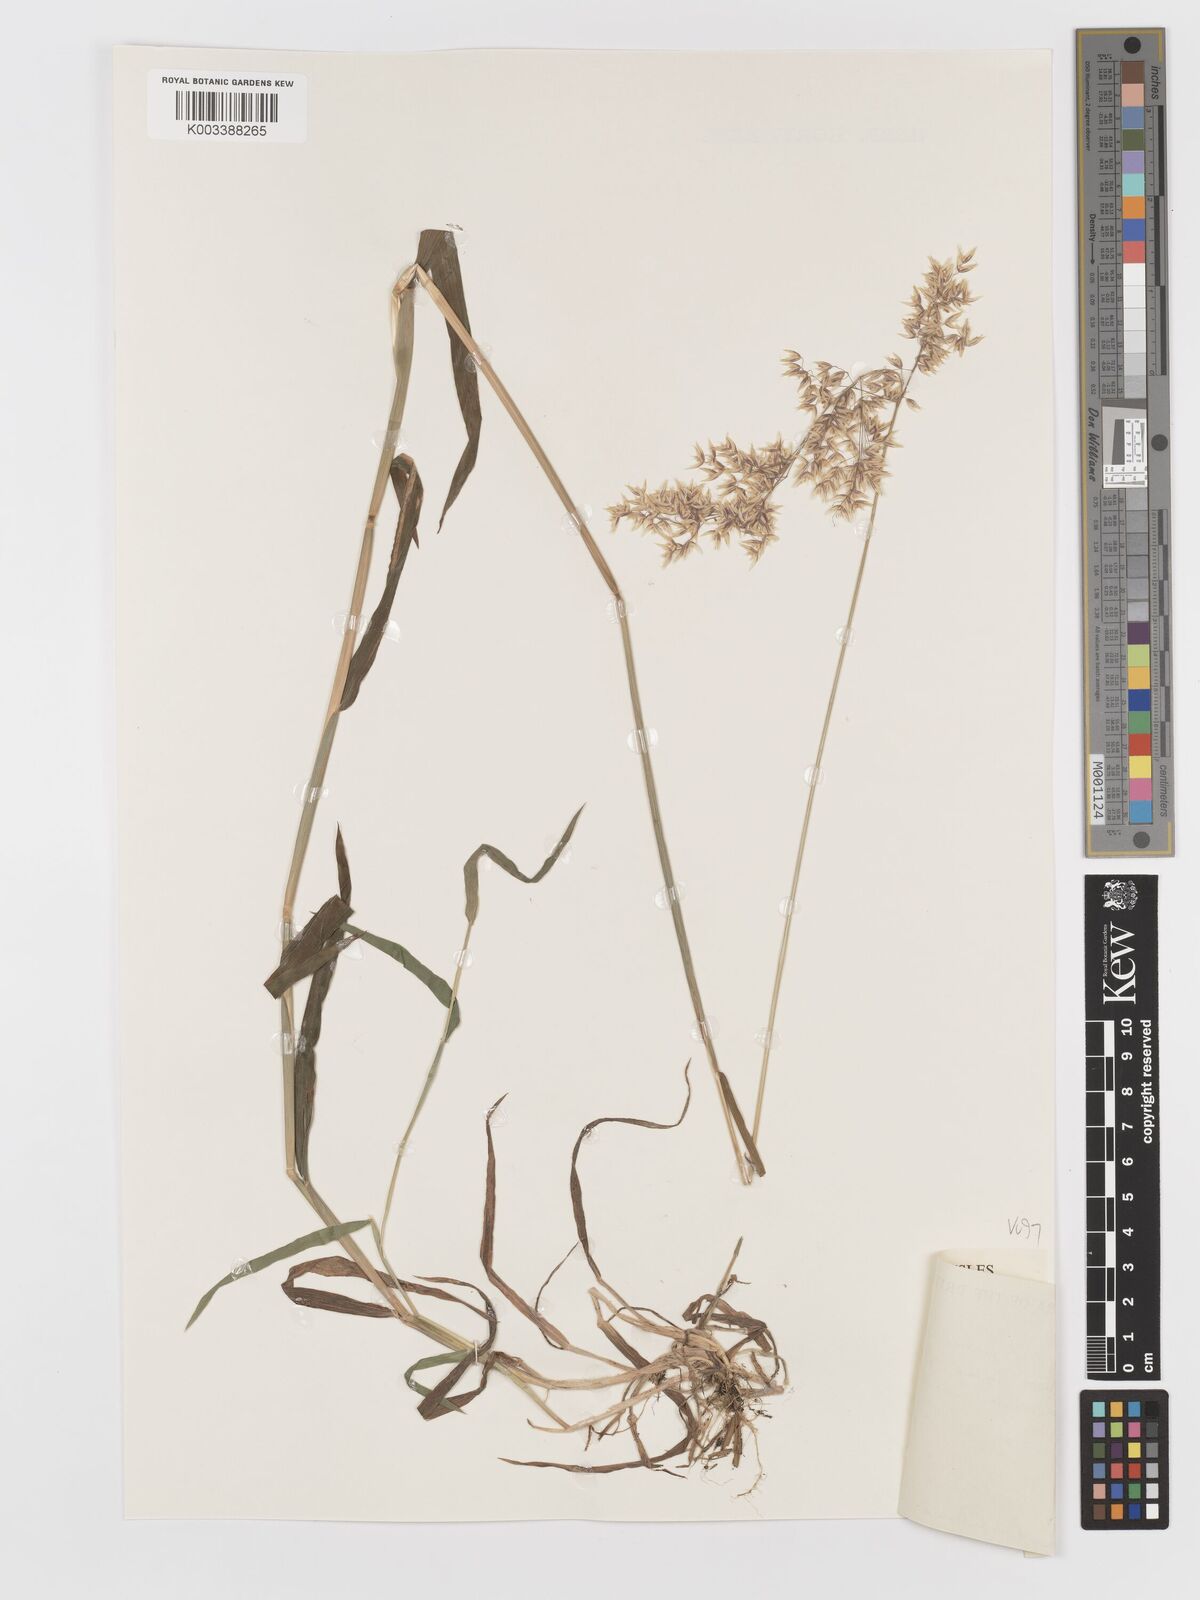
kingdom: Plantae
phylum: Tracheophyta
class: Liliopsida
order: Poales
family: Poaceae
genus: Holcus
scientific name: Holcus mollis
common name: Creeping velvetgrass
